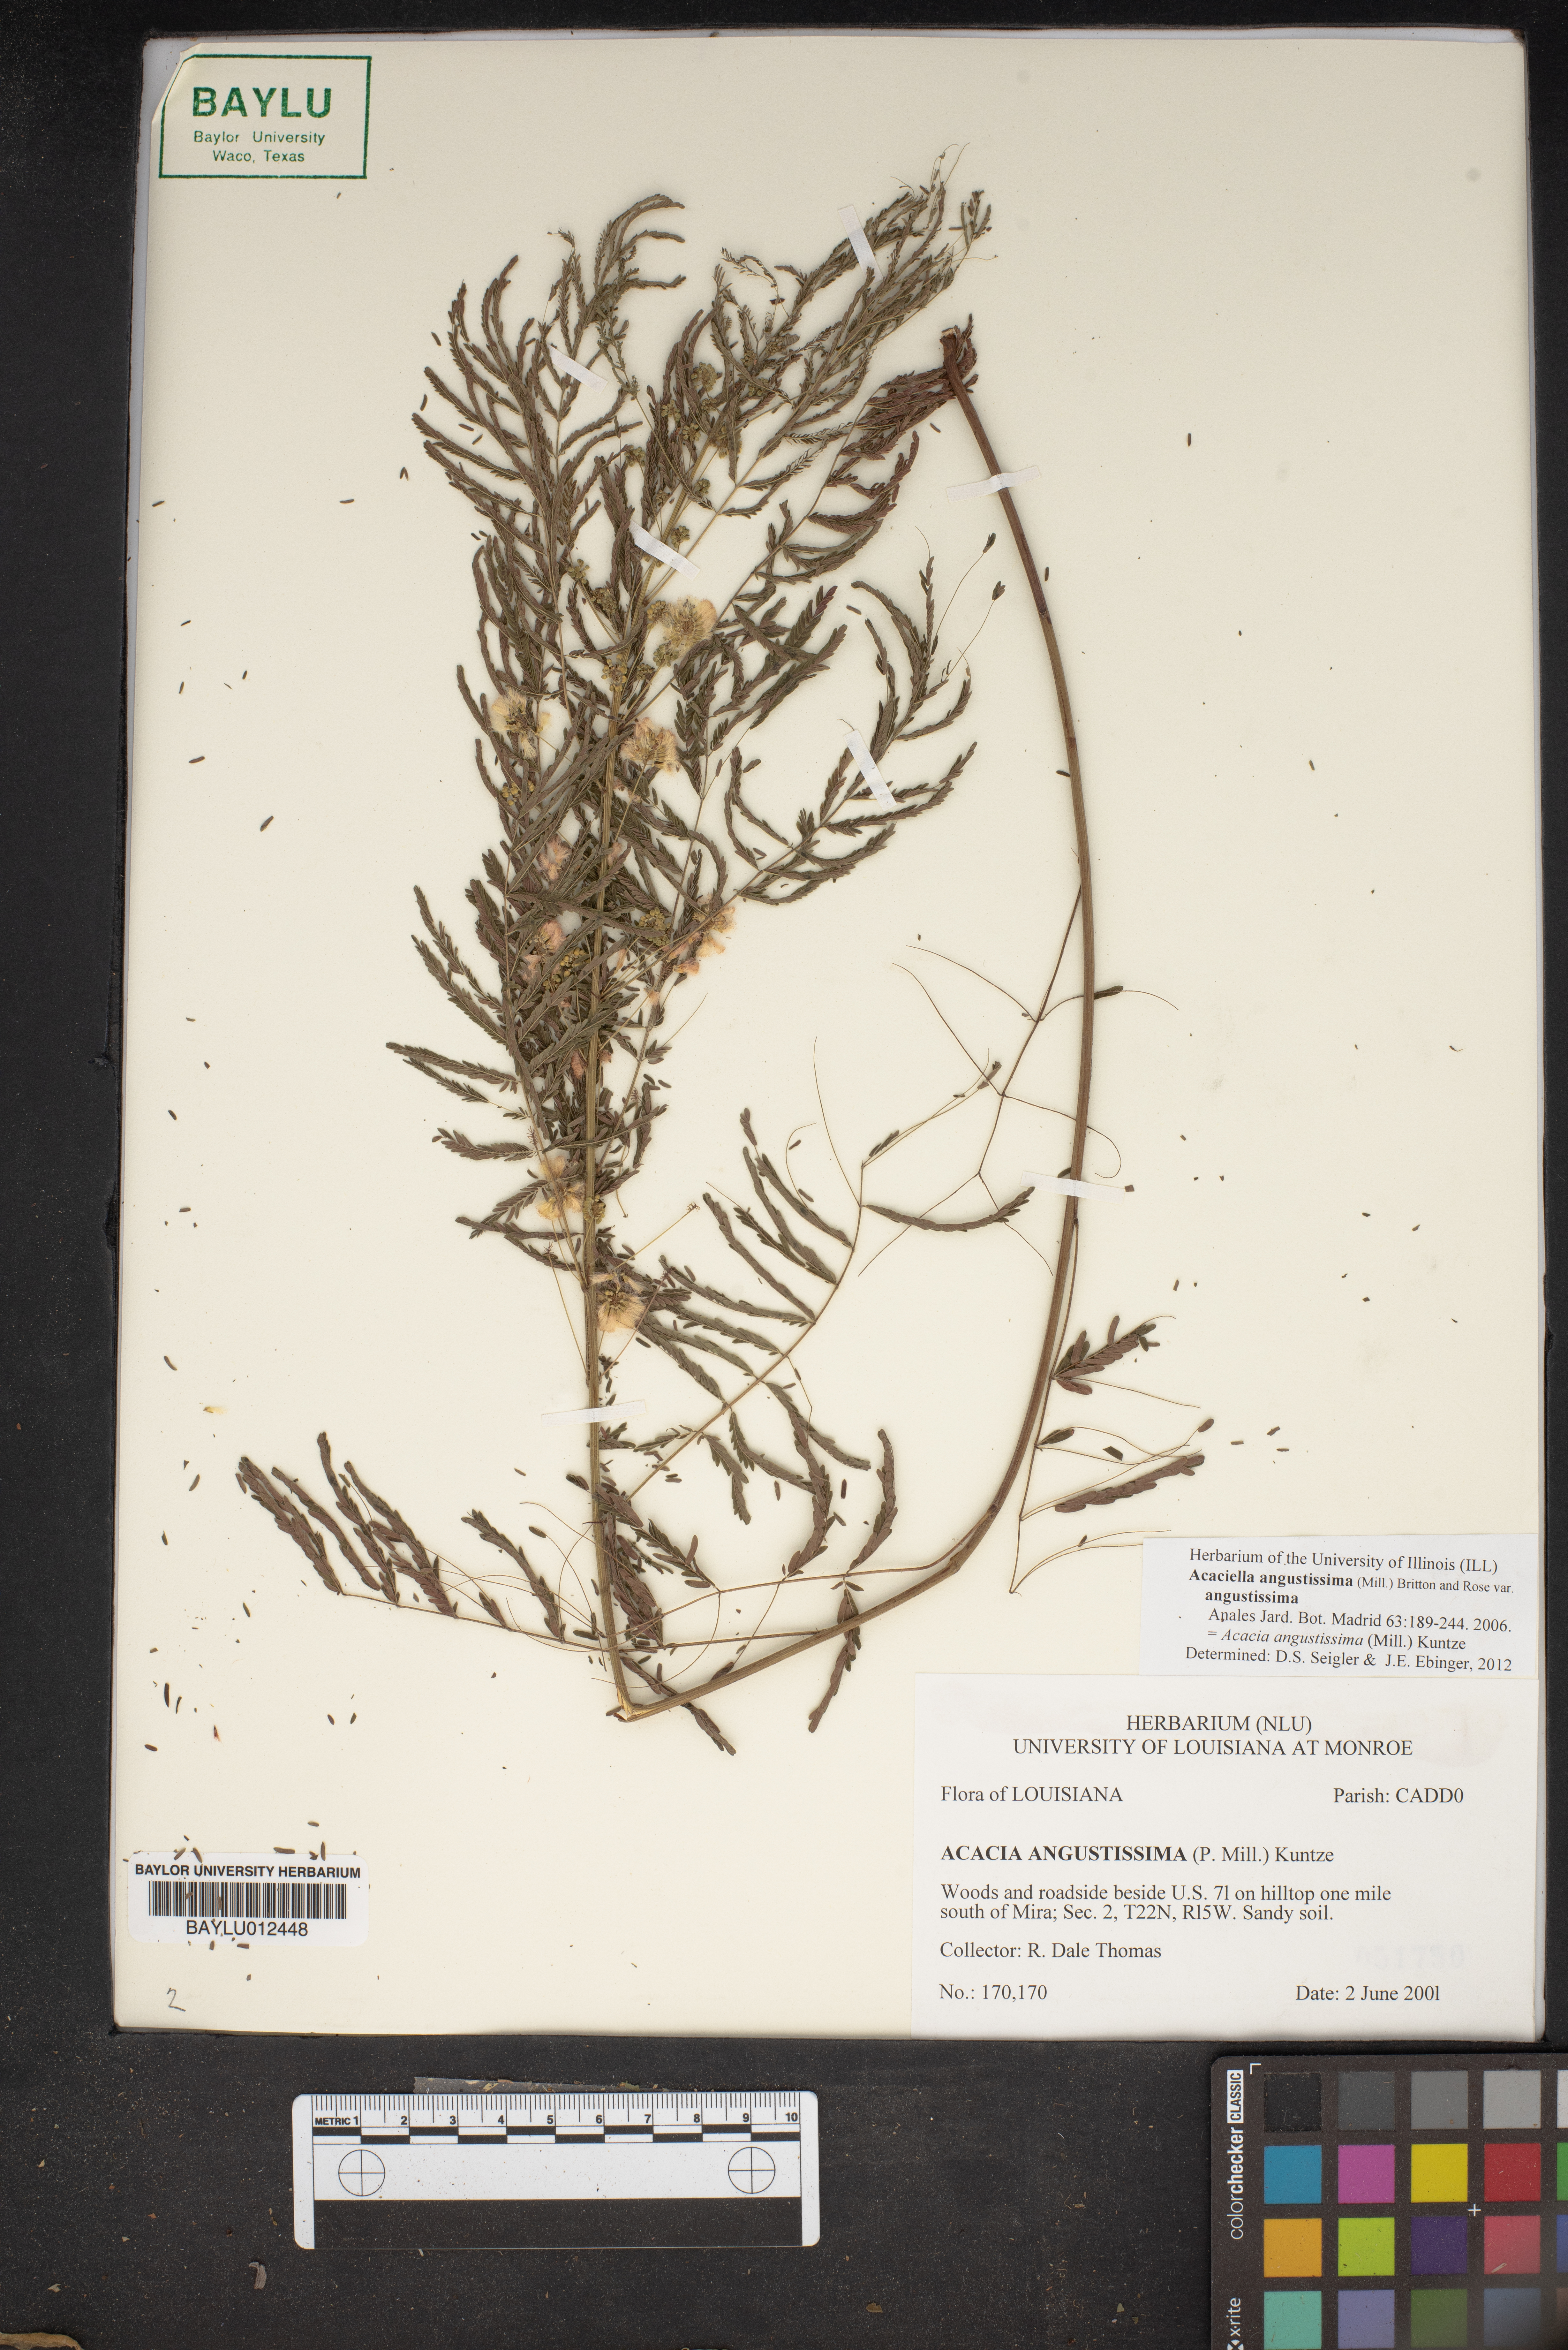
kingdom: Plantae
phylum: Tracheophyta
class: Magnoliopsida
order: Fabales
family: Fabaceae
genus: Acaciella
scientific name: Acaciella angustissima
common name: Prairie acacia
